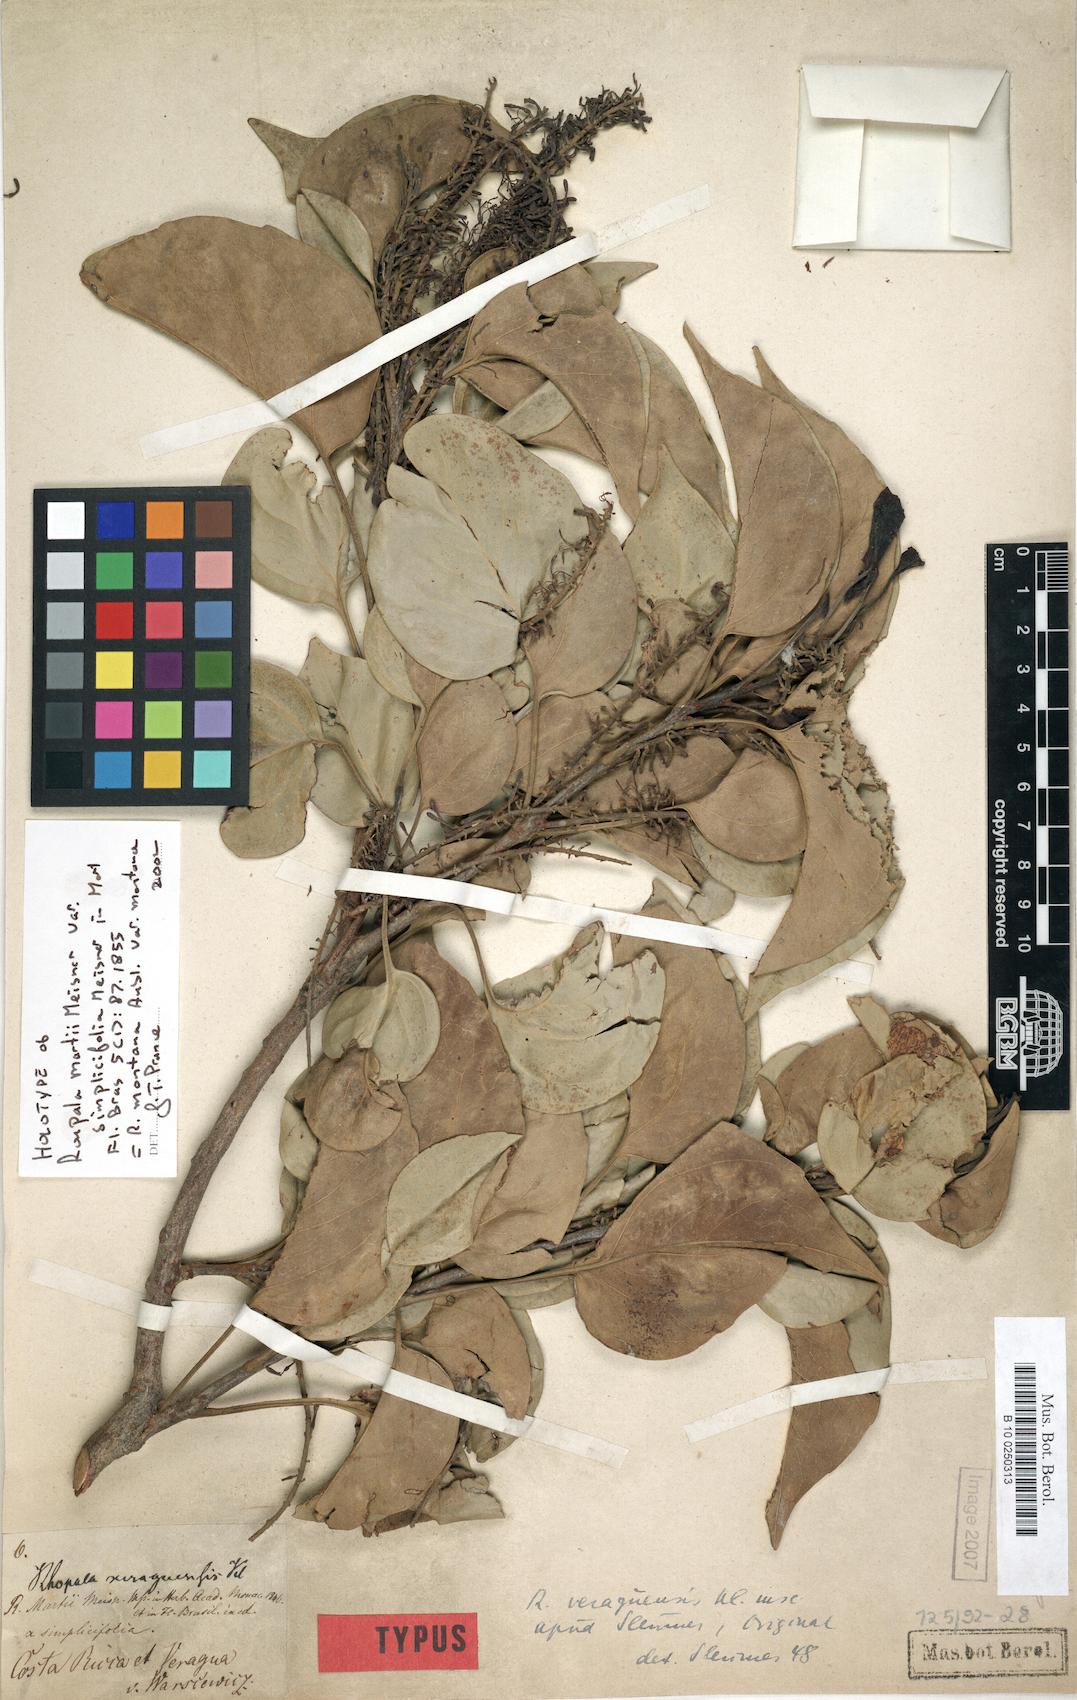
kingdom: Plantae
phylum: Tracheophyta
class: Magnoliopsida
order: Proteales
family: Proteaceae
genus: Roupala
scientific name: Roupala montana
